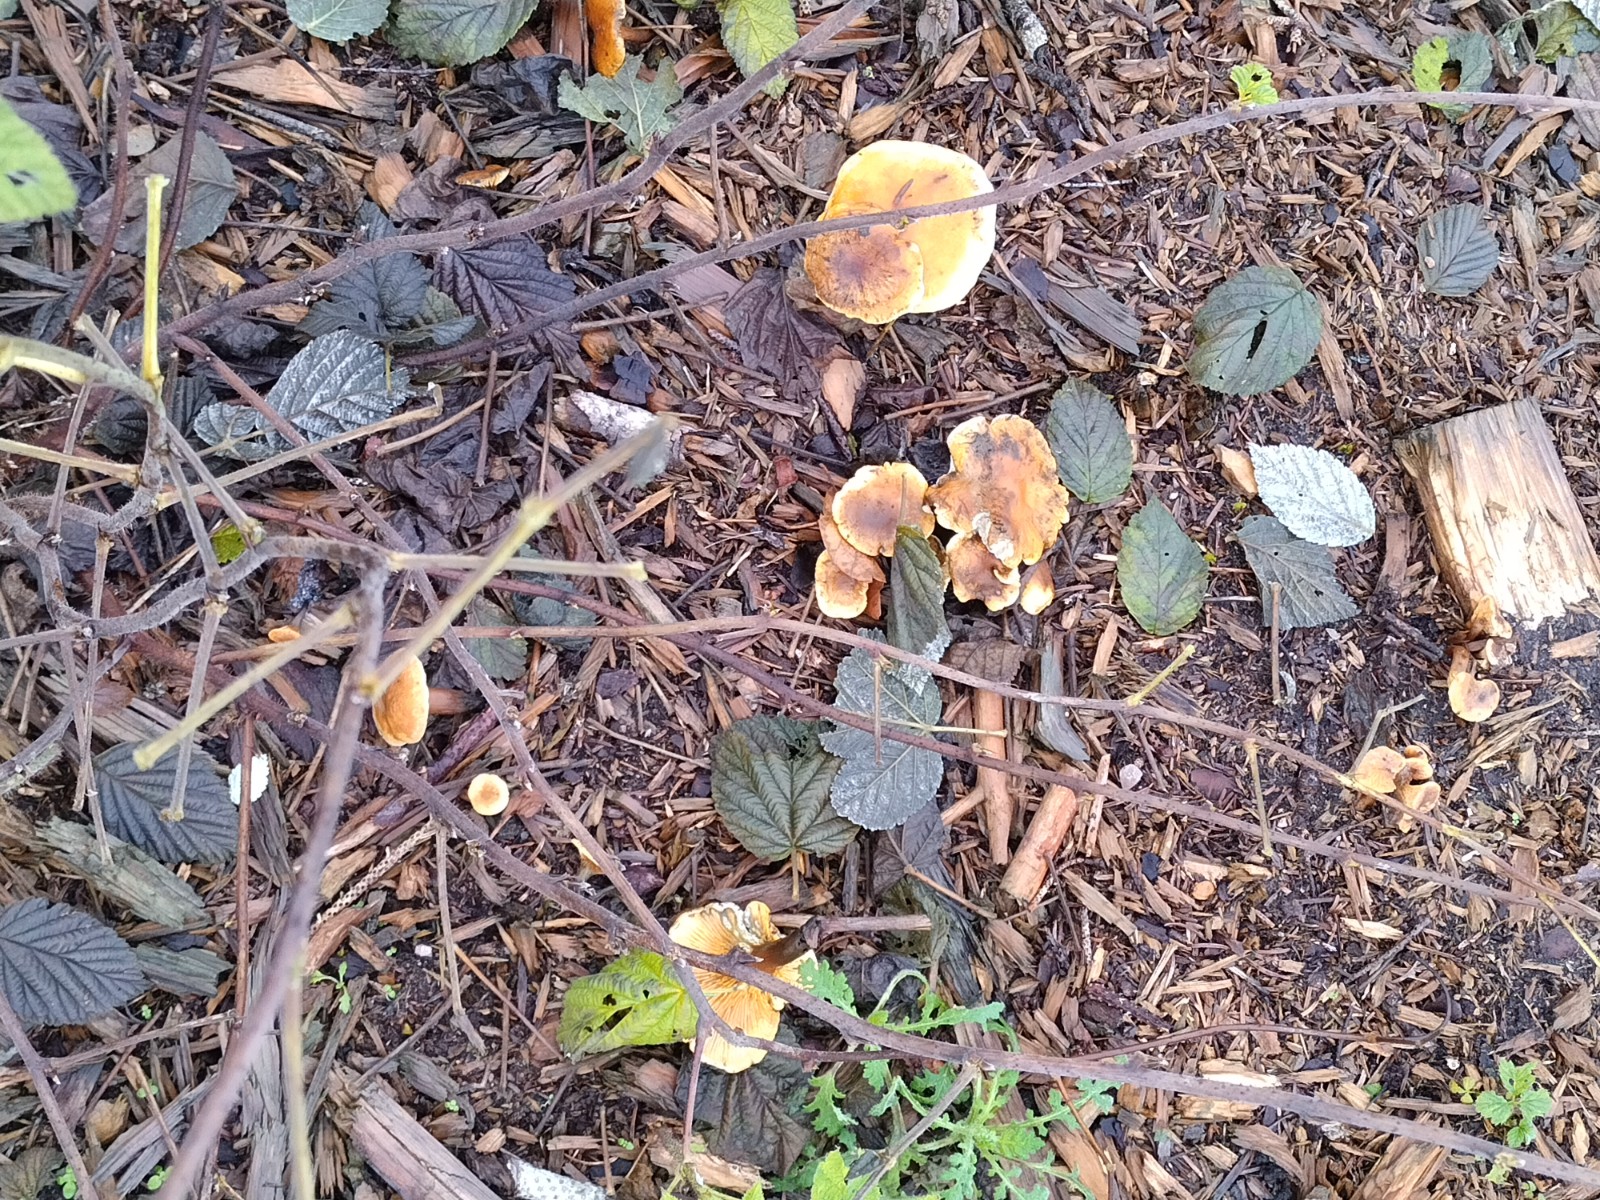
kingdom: Fungi
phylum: Basidiomycota
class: Agaricomycetes
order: Boletales
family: Hygrophoropsidaceae
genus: Hygrophoropsis
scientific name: Hygrophoropsis aurantiaca
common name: almindelig orangekantarel
